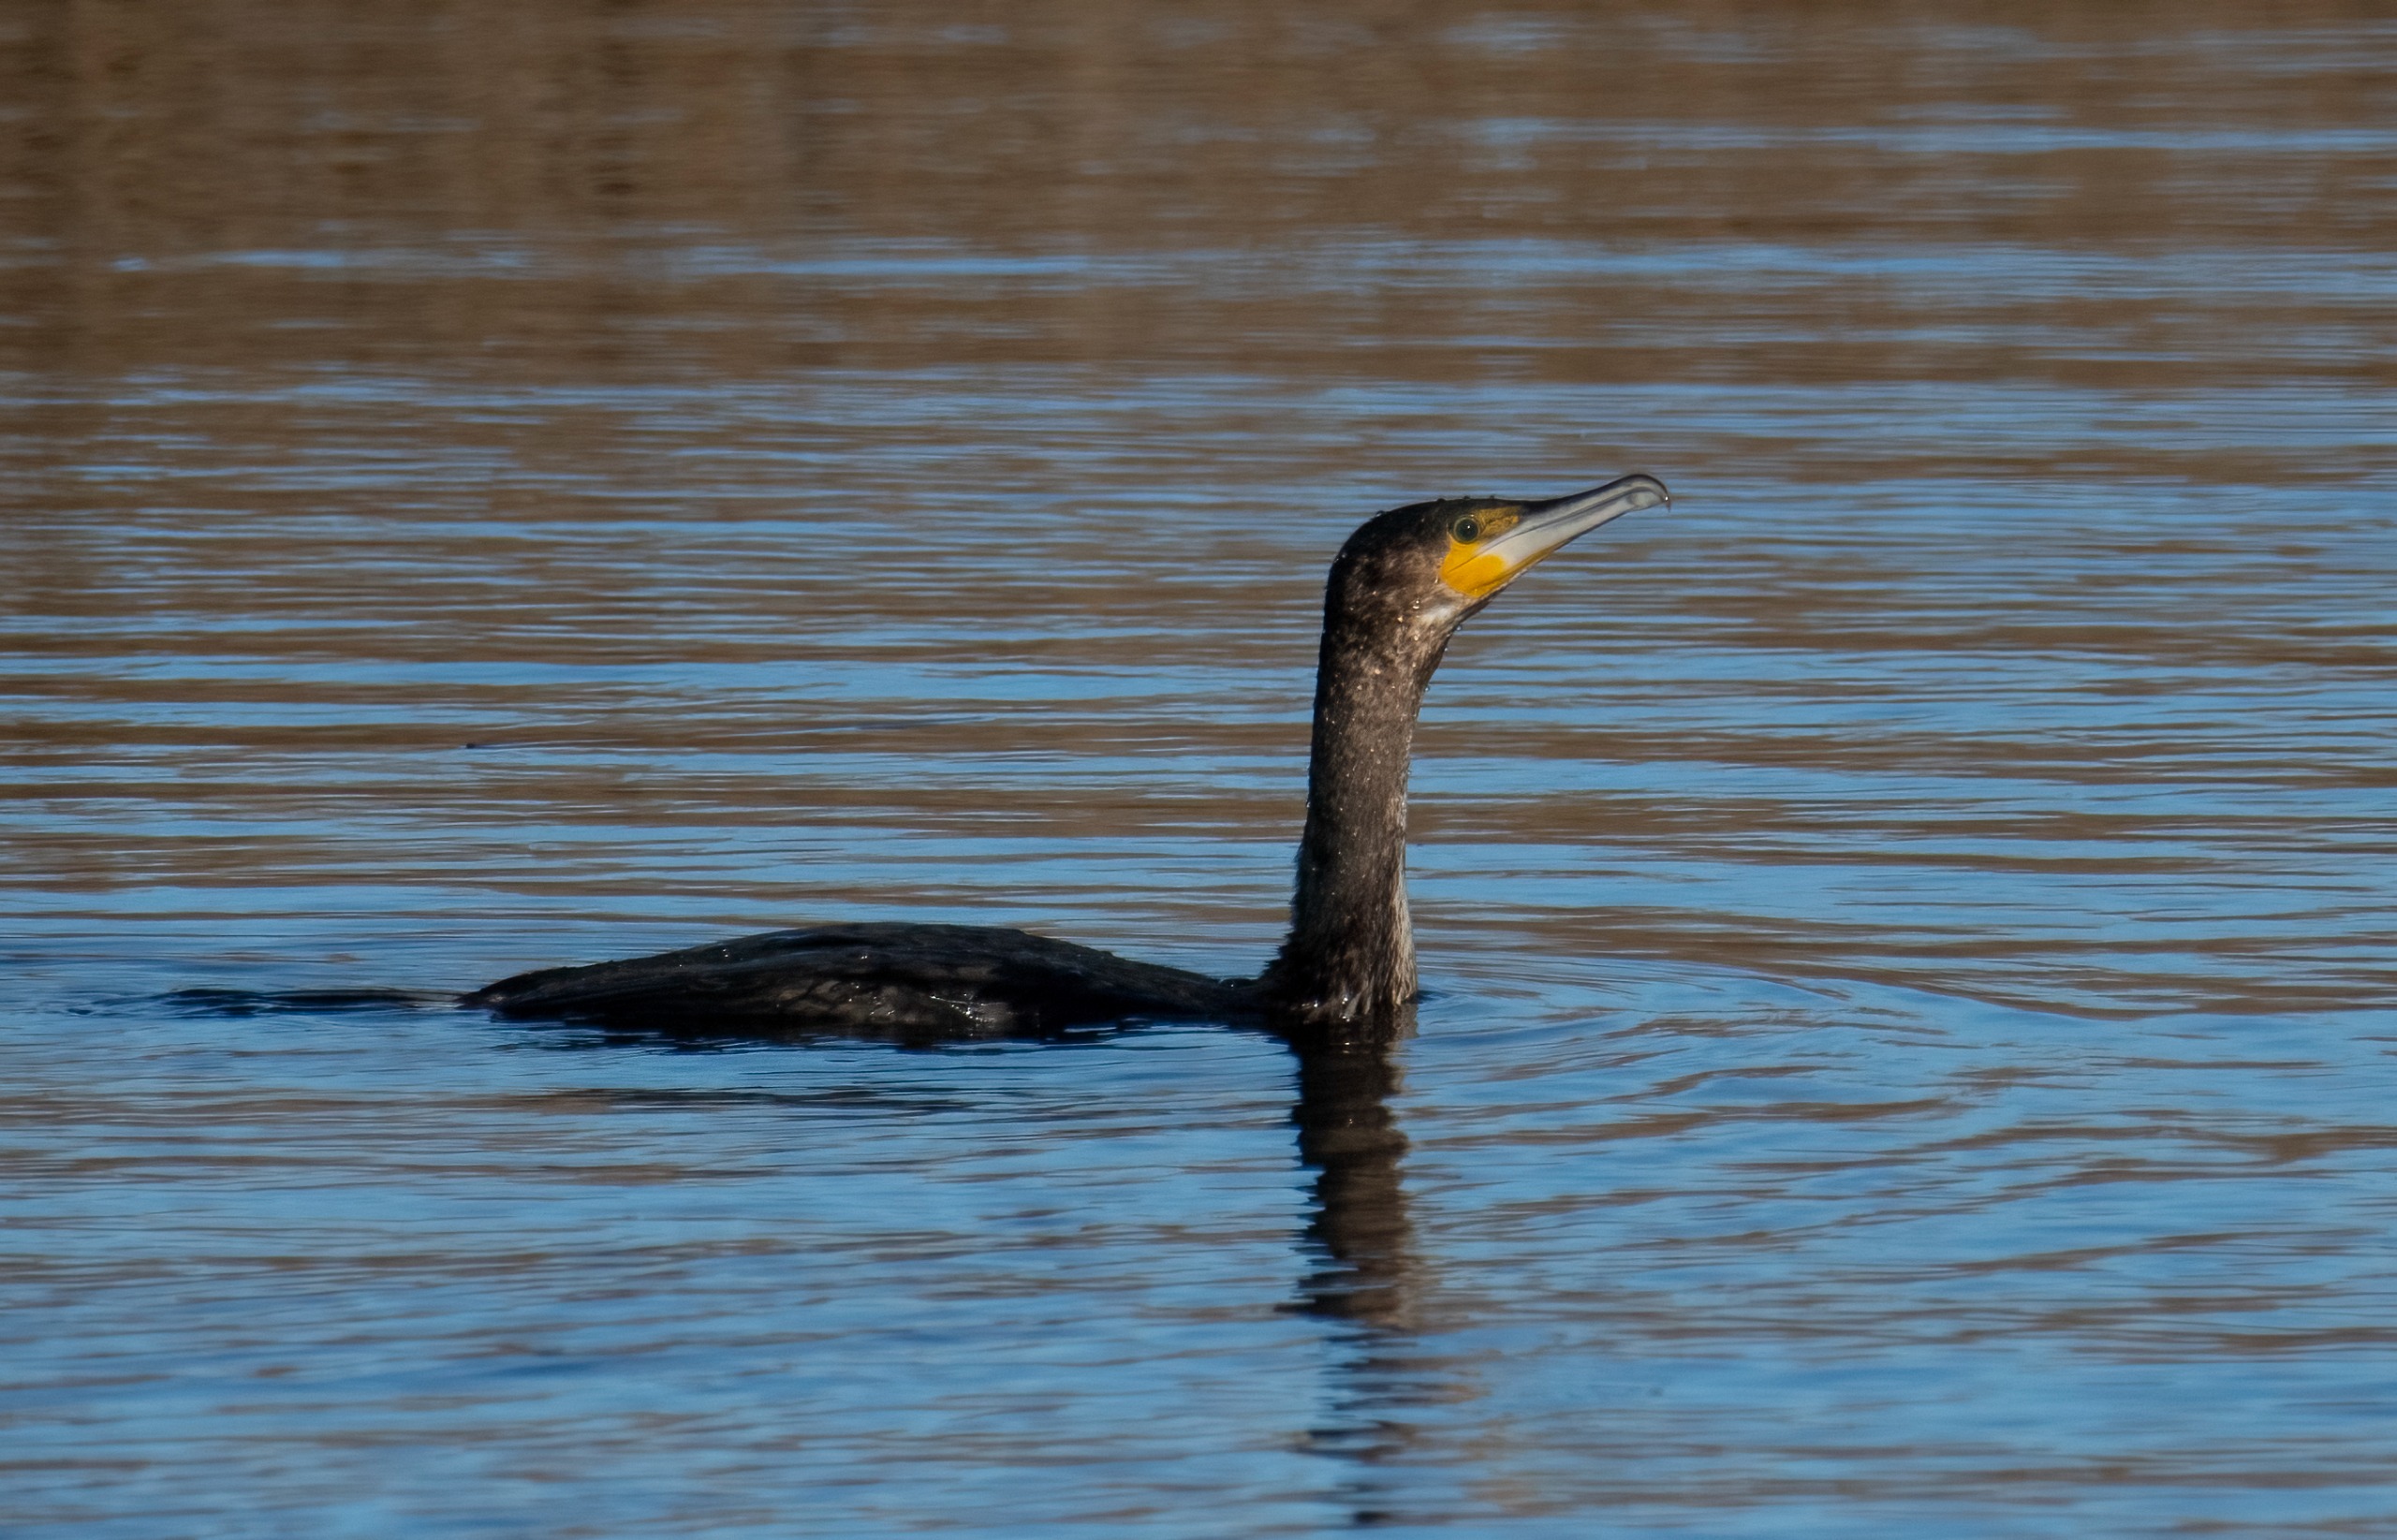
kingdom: Animalia
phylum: Chordata
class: Aves
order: Suliformes
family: Phalacrocoracidae
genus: Phalacrocorax
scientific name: Phalacrocorax carbo
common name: Skarv
